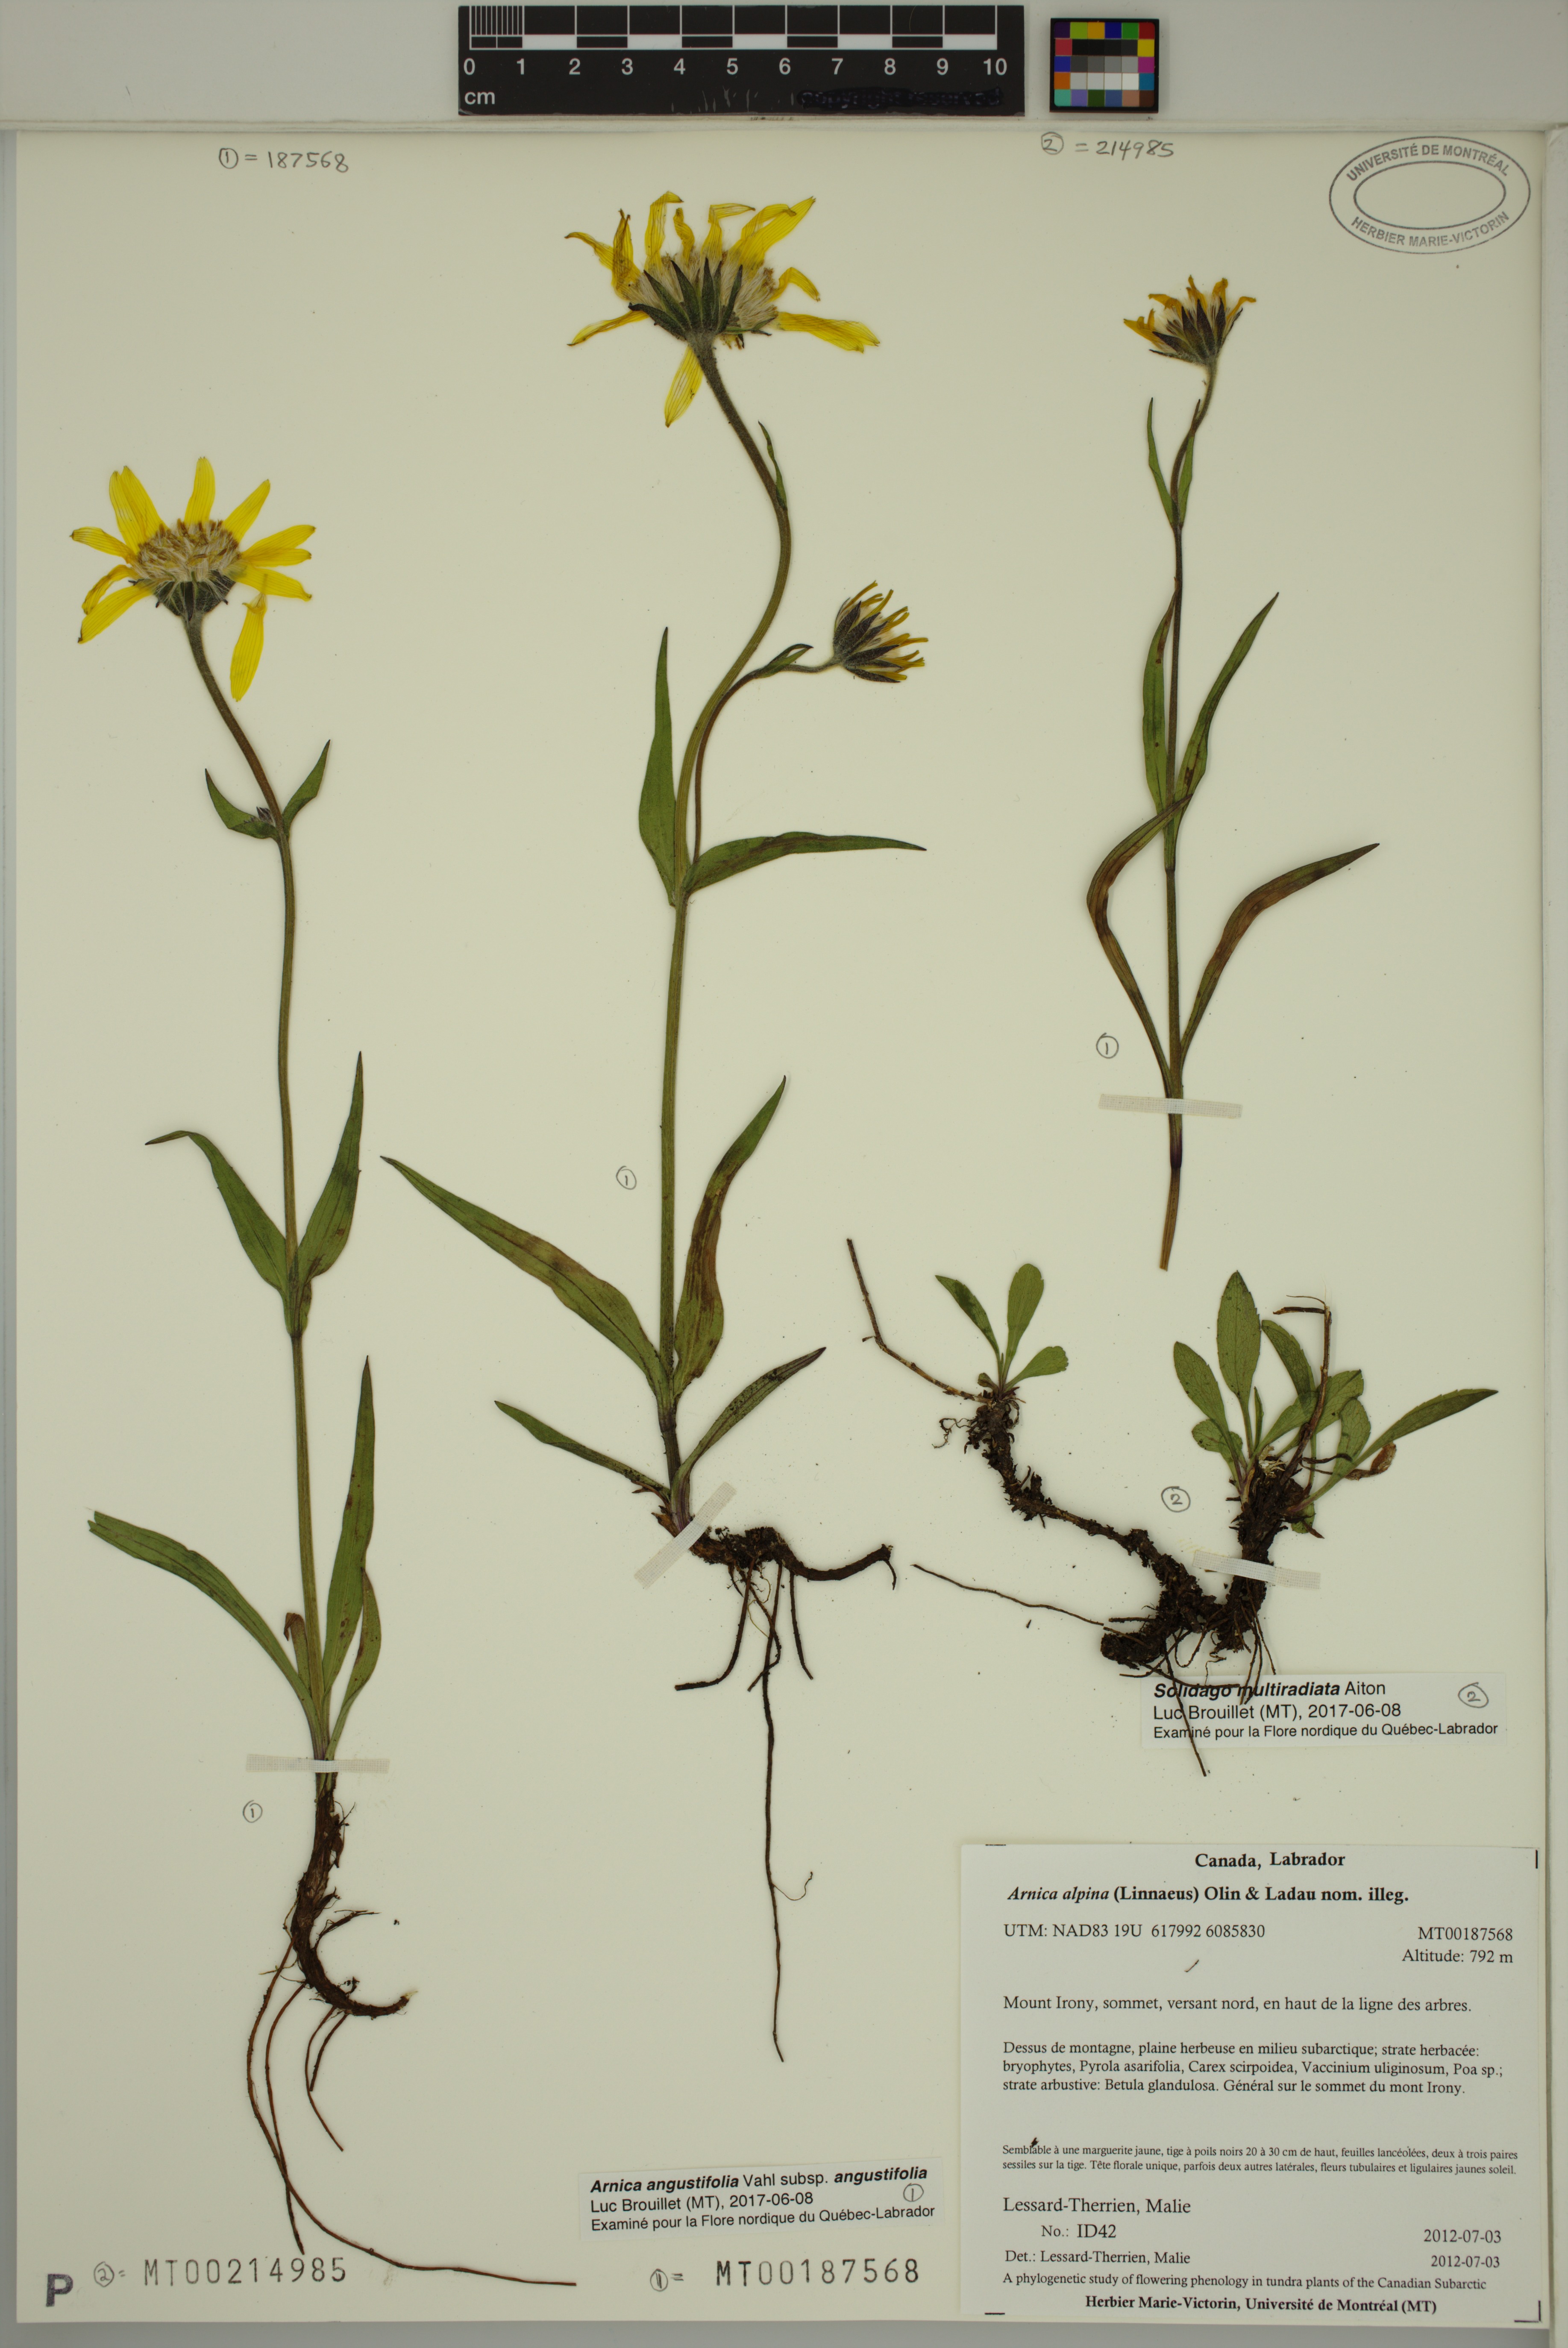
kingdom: Plantae
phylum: Tracheophyta
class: Magnoliopsida
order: Asterales
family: Asteraceae
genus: Solidago
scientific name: Solidago multiradiata
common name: Northern goldenrod
